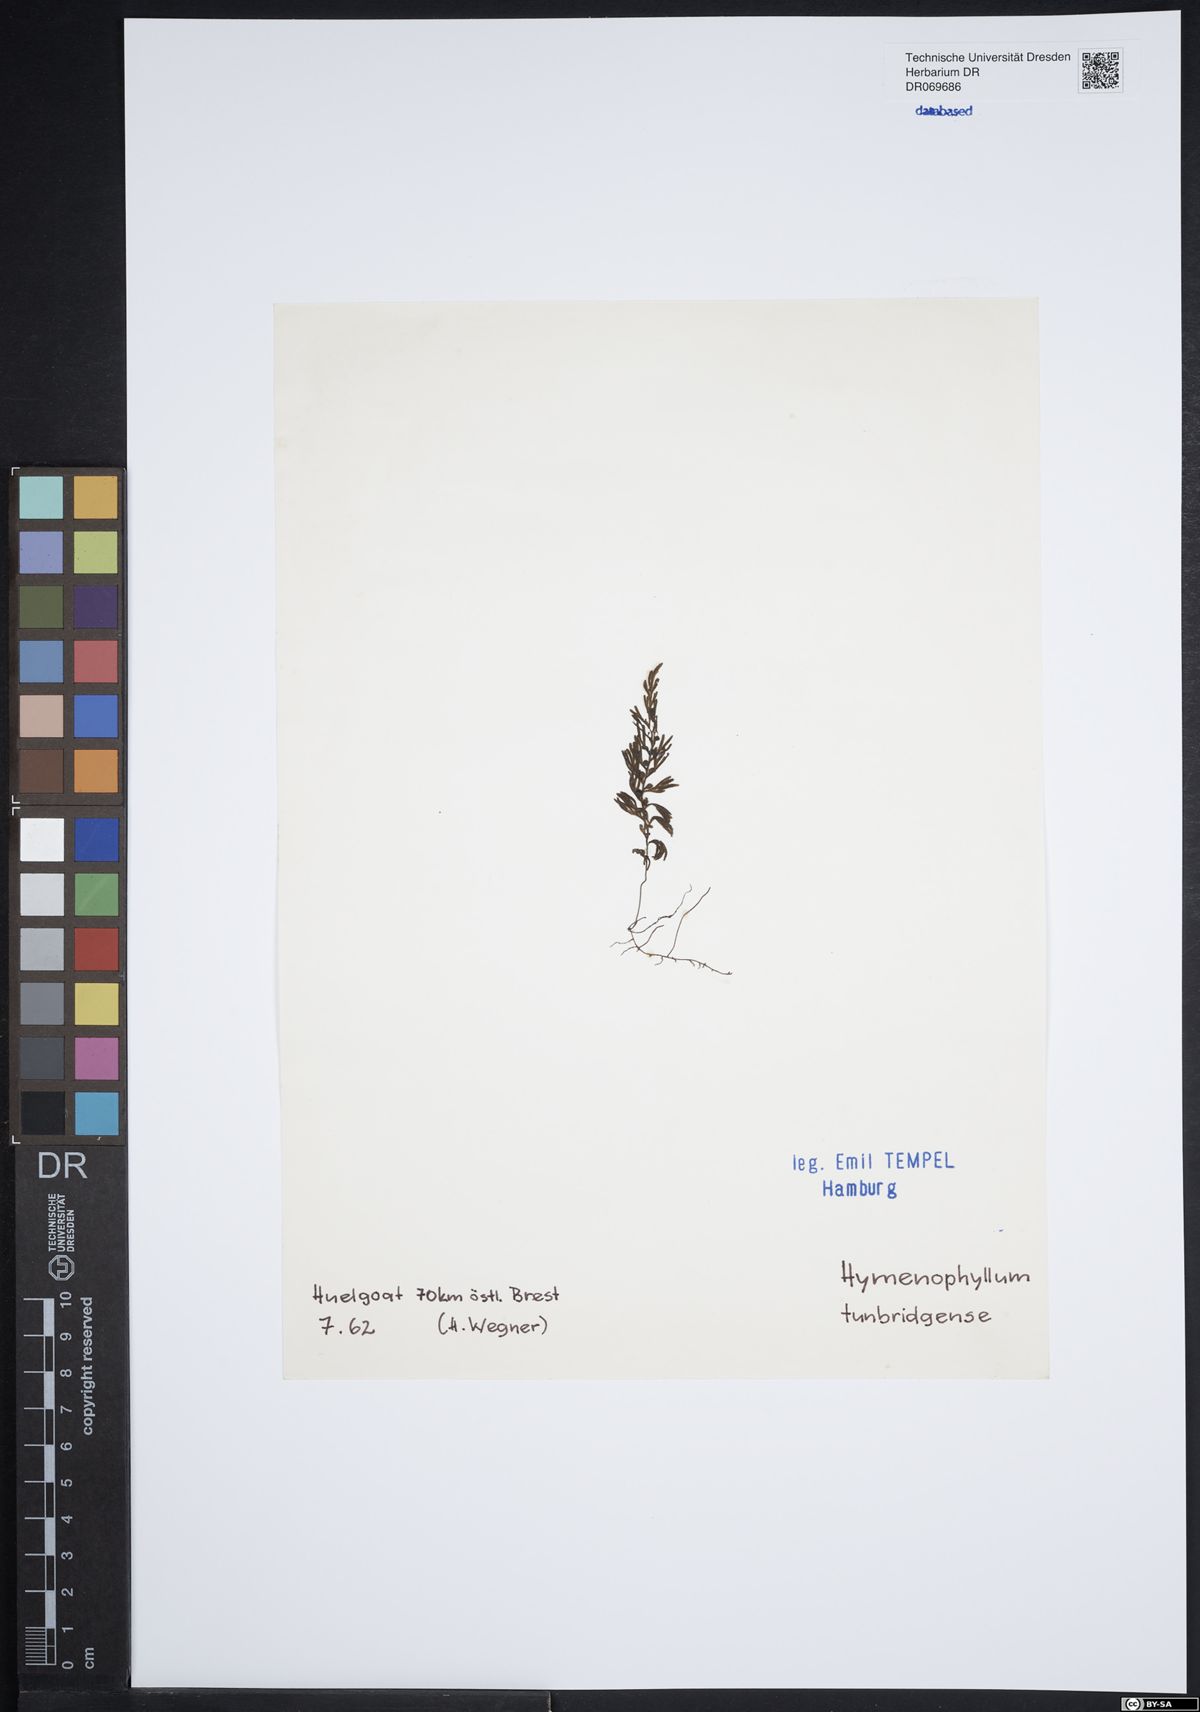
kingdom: Plantae
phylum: Tracheophyta
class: Polypodiopsida
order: Hymenophyllales
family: Hymenophyllaceae
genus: Hymenophyllum
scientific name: Hymenophyllum tunbrigense
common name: Tunbridge filmy fern
